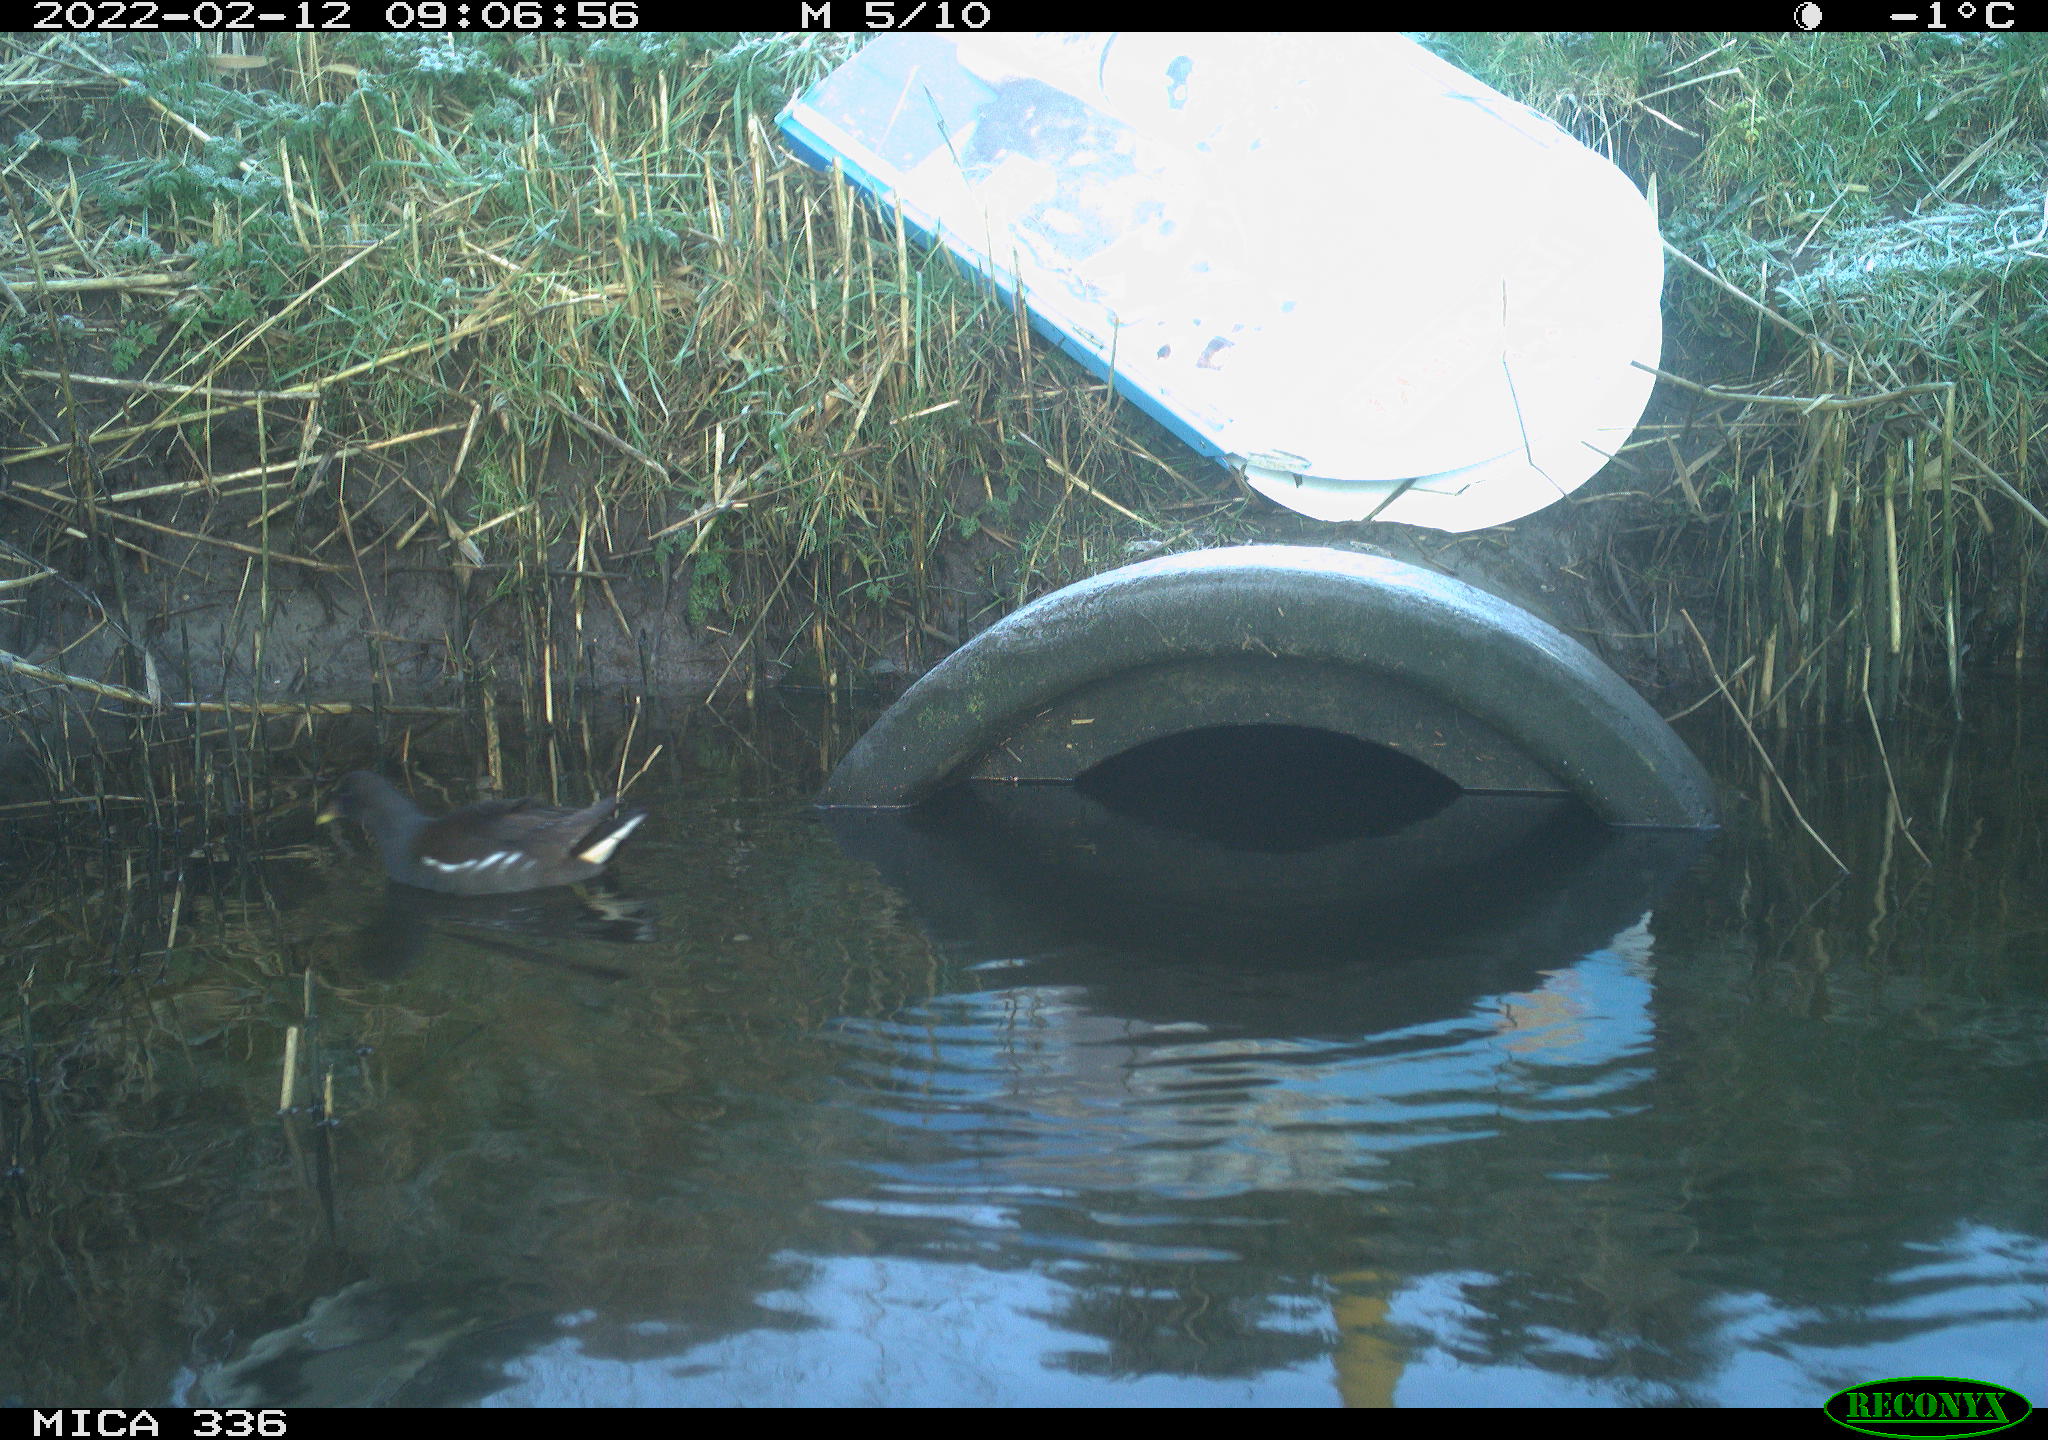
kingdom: Animalia
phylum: Chordata
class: Aves
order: Gruiformes
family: Rallidae
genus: Gallinula
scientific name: Gallinula chloropus
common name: Common moorhen
